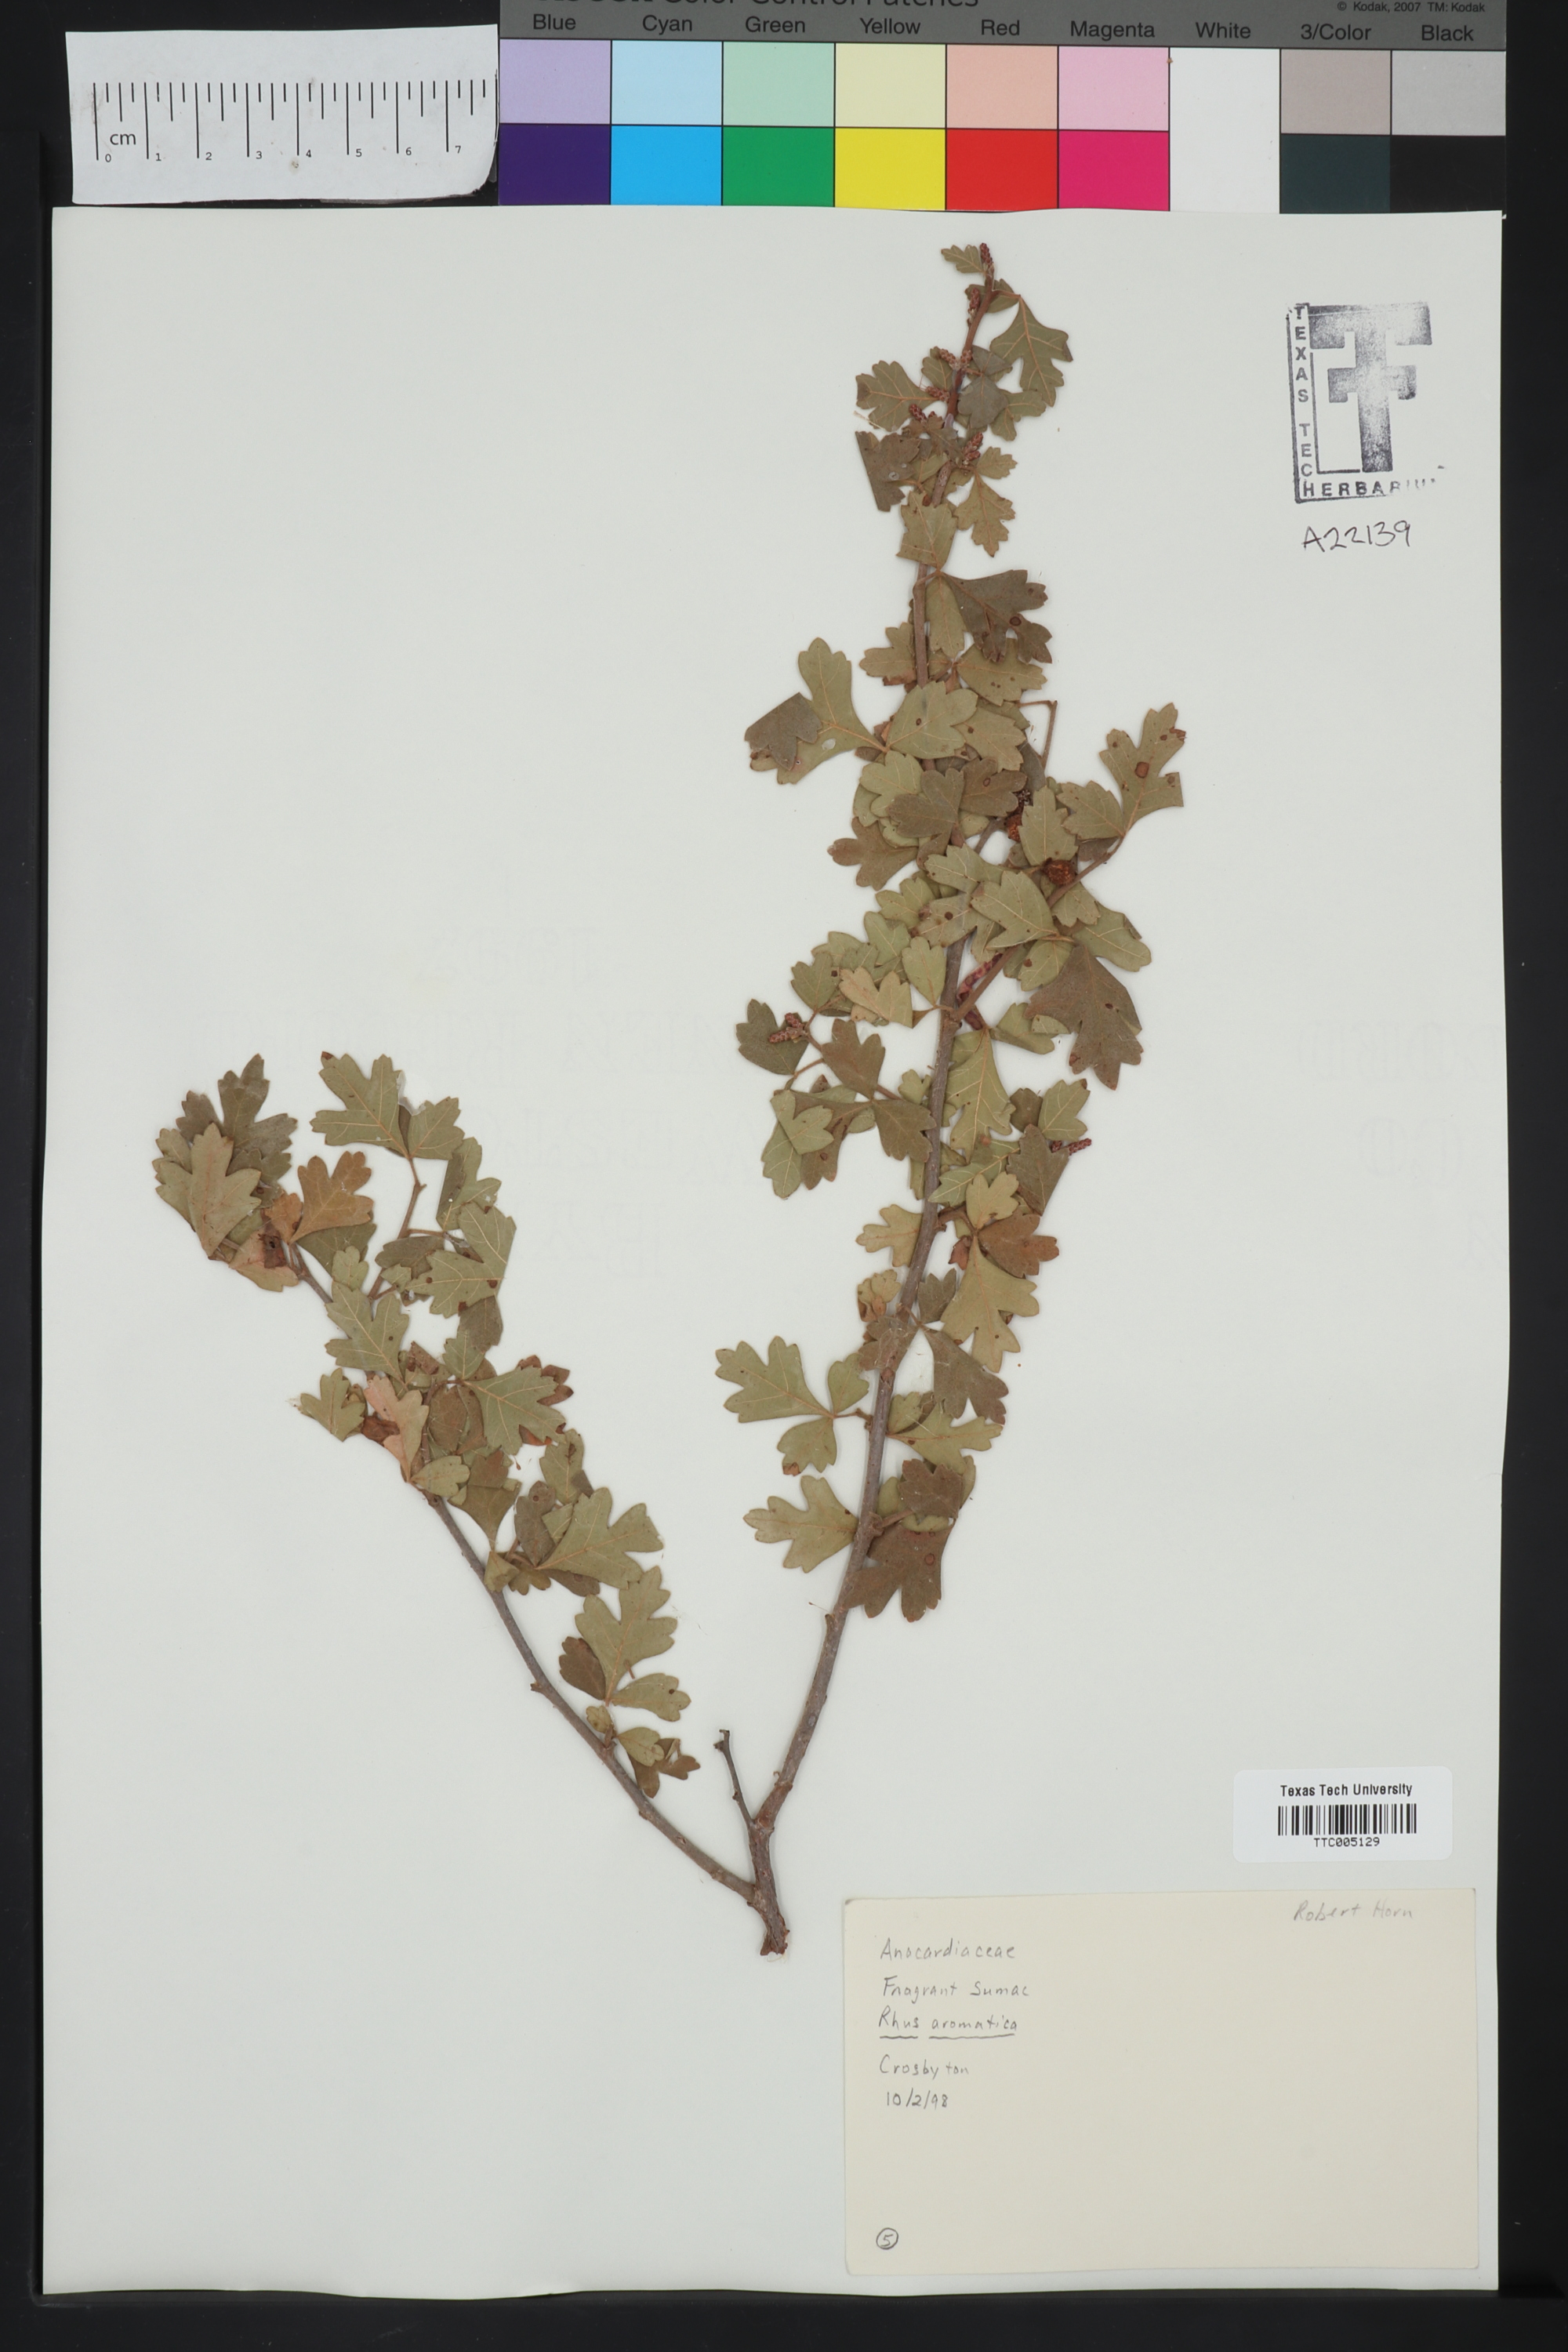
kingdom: Plantae
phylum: Tracheophyta
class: Magnoliopsida
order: Sapindales
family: Anacardiaceae
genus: Rhus
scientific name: Rhus aromatica
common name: Aromatic sumac
